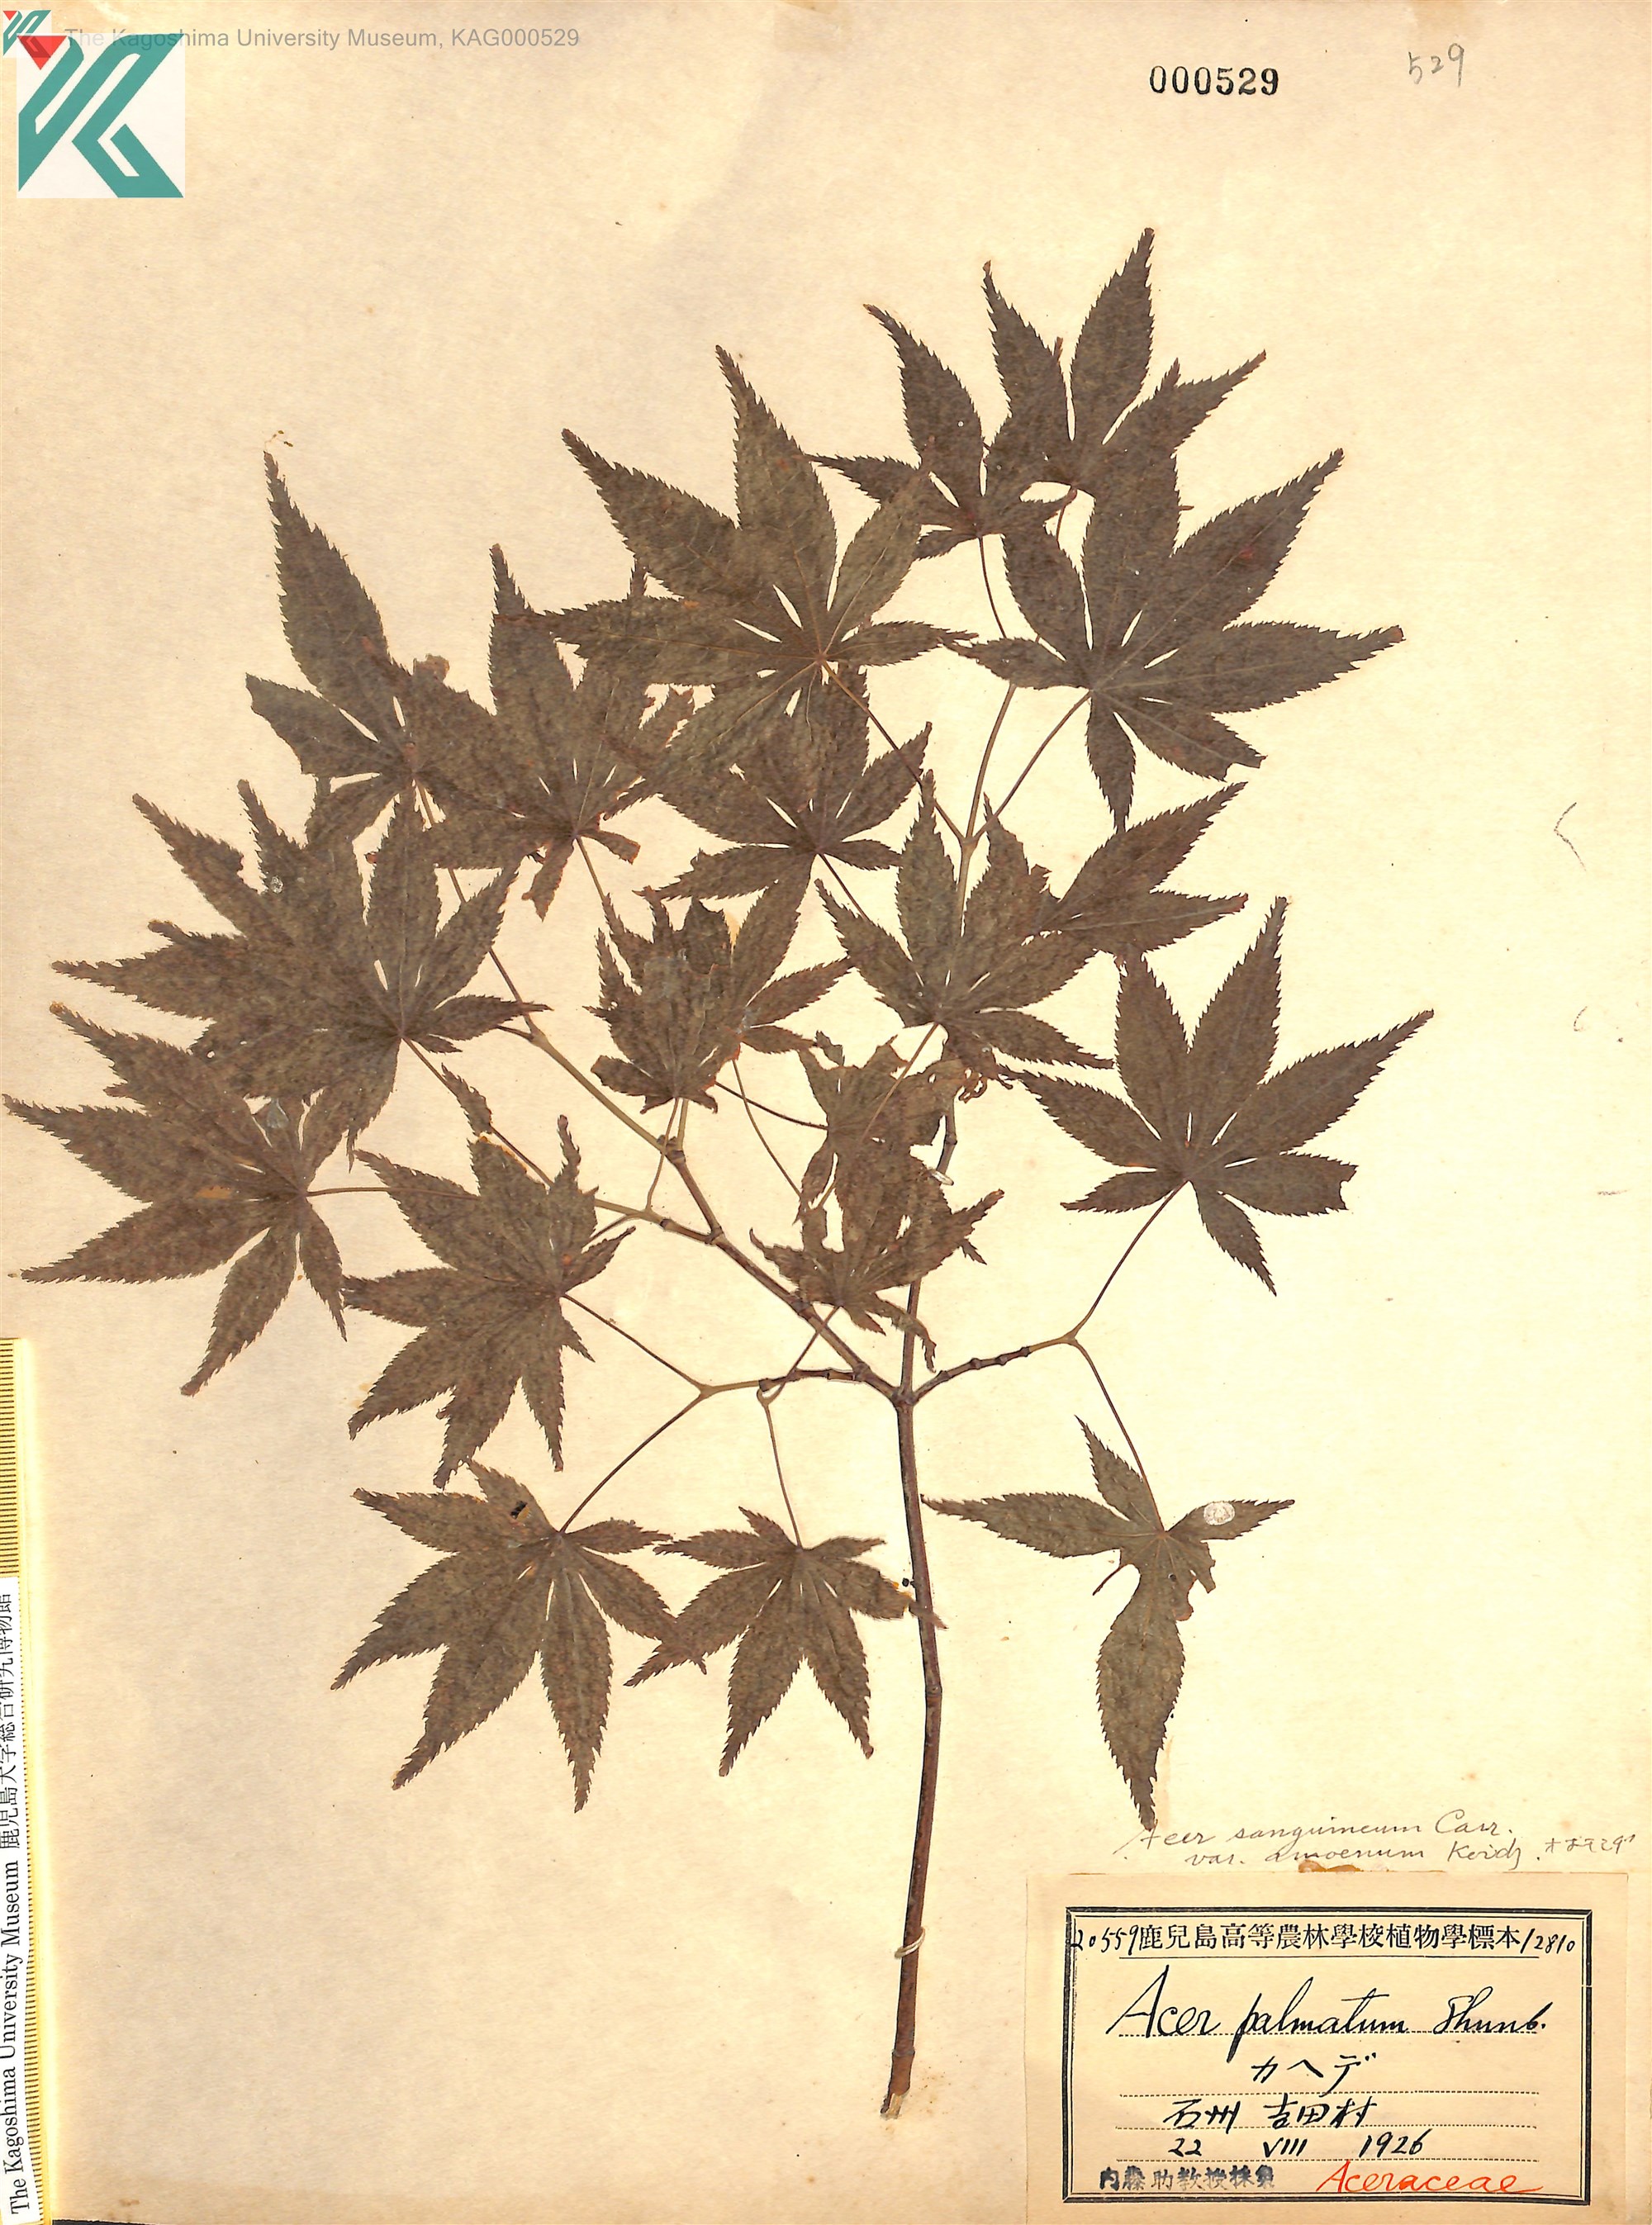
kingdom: Plantae
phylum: Tracheophyta
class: Magnoliopsida
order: Sapindales
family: Sapindaceae
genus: Acer
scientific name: Acer palmatum
